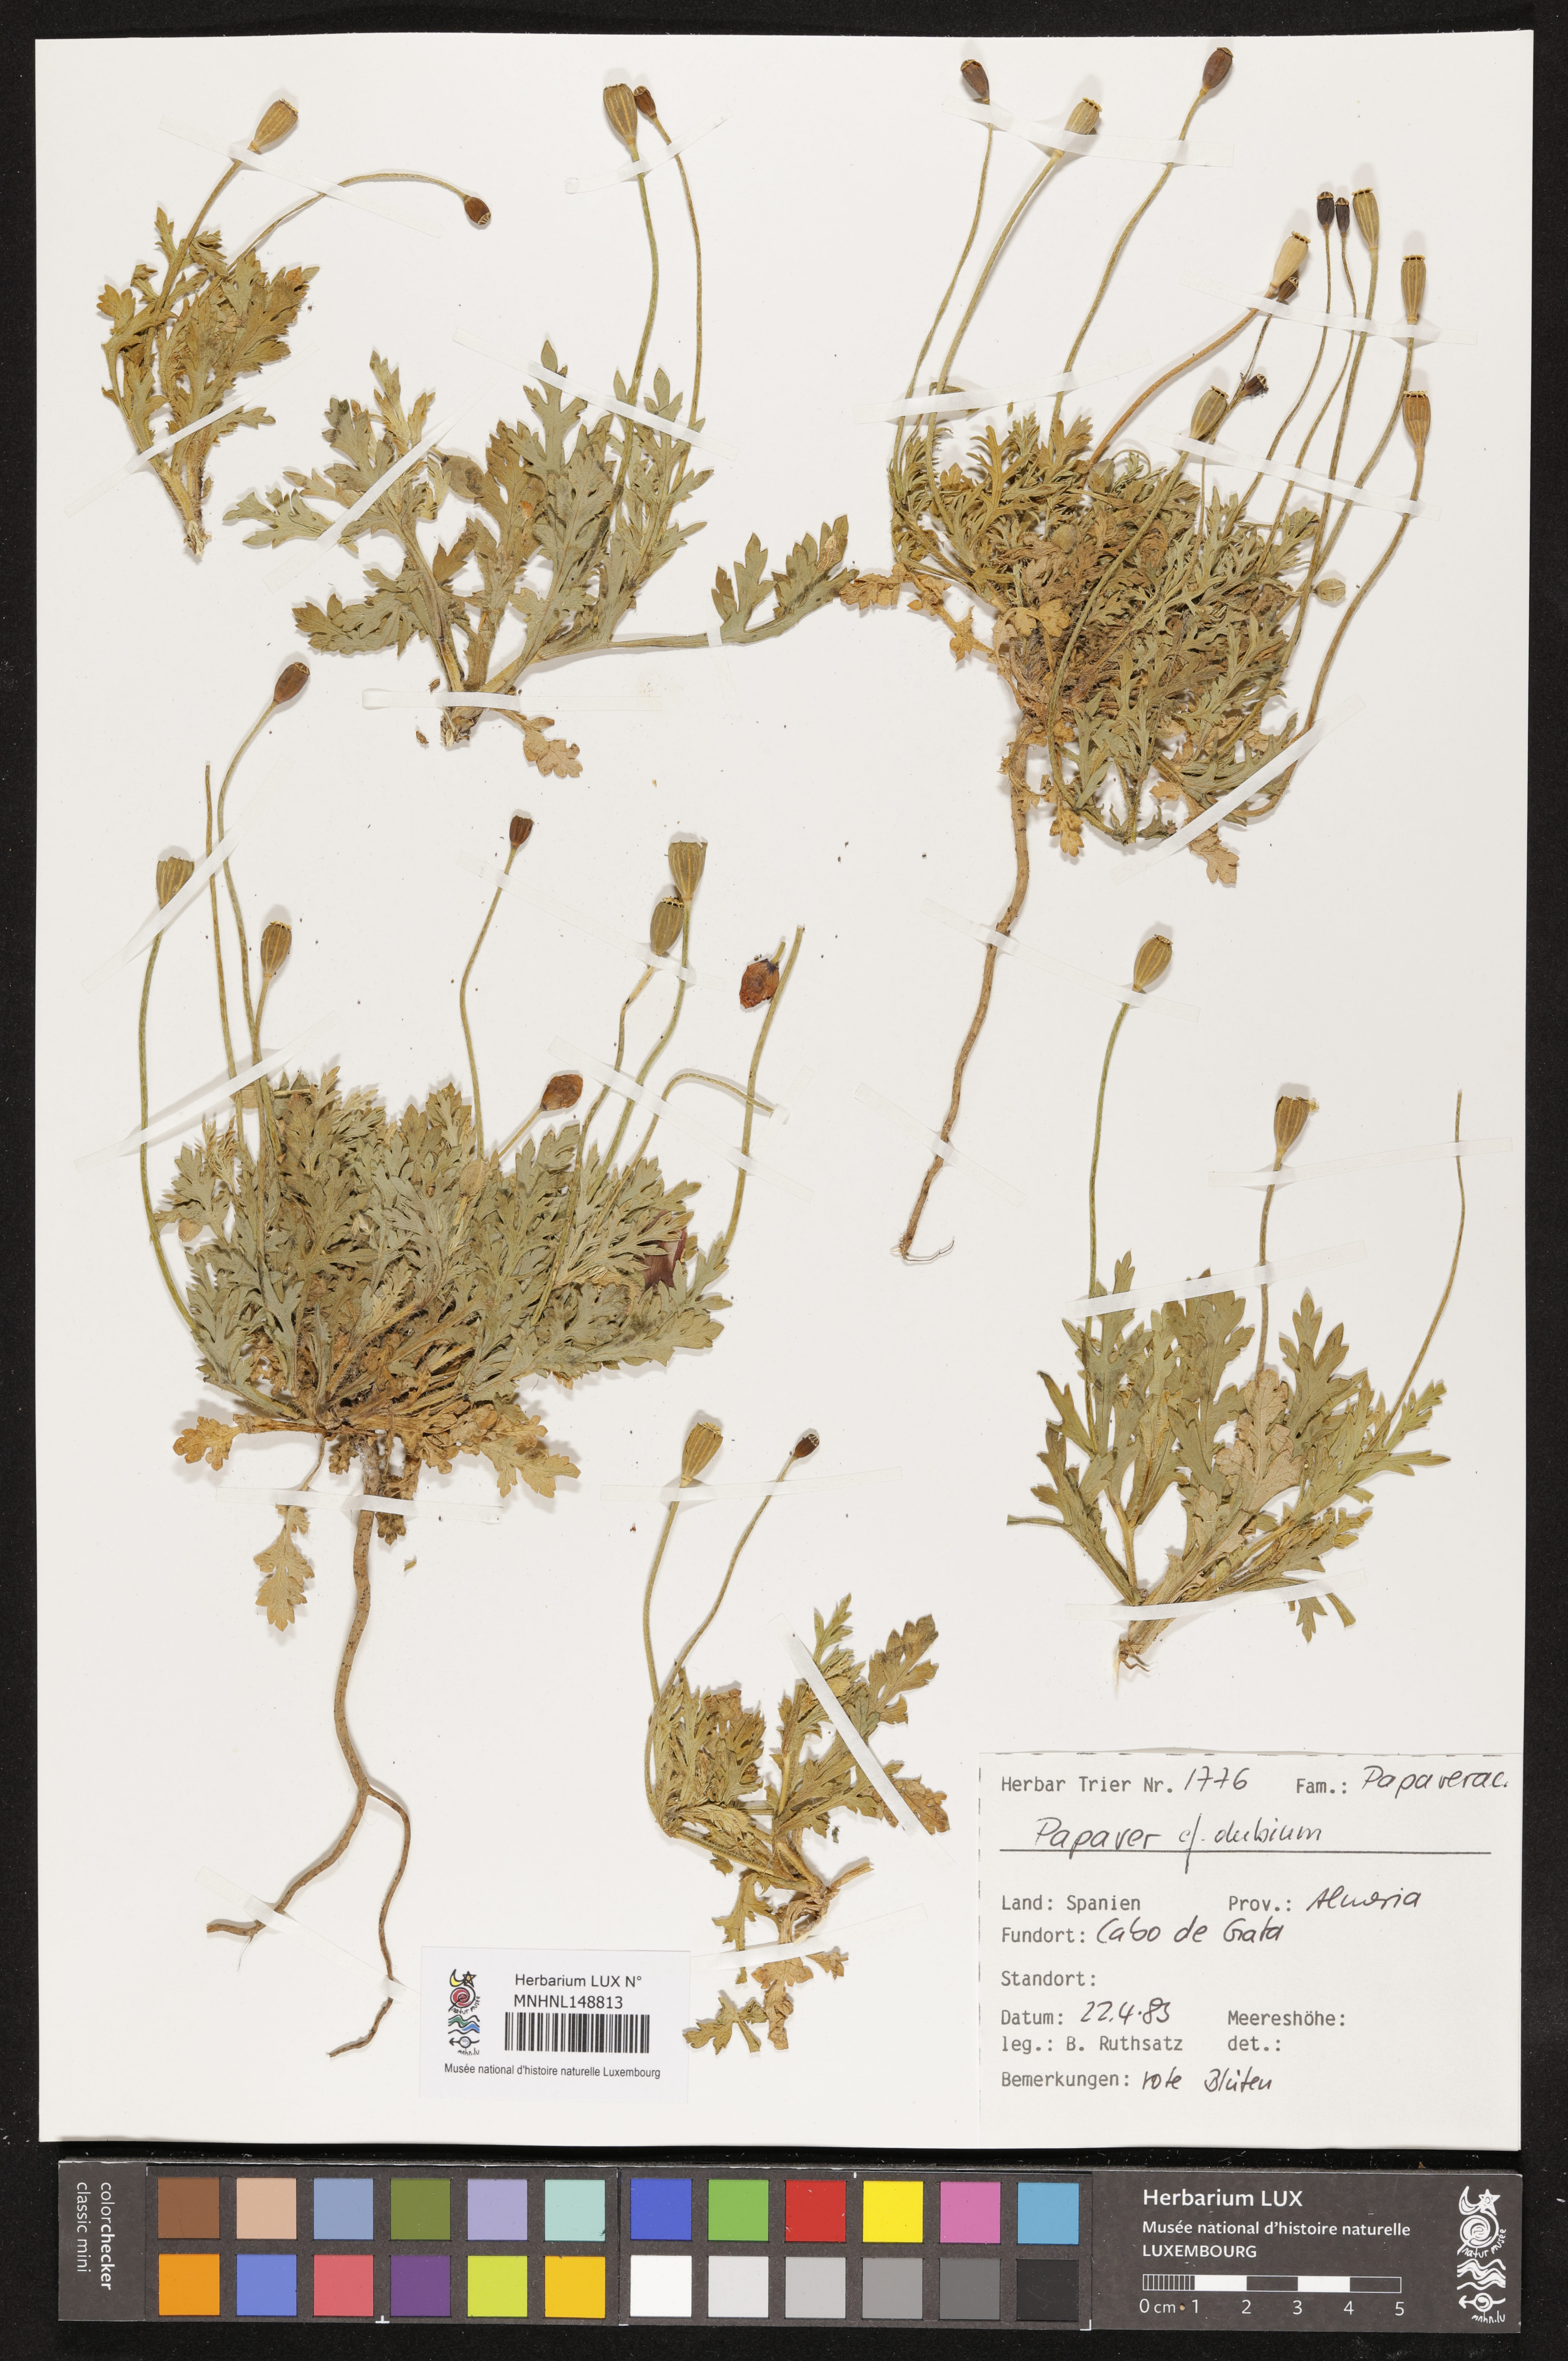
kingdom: Plantae
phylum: Tracheophyta
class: Magnoliopsida
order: Ranunculales
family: Papaveraceae
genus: Papaver
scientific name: Papaver dubium
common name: Long-headed poppy
